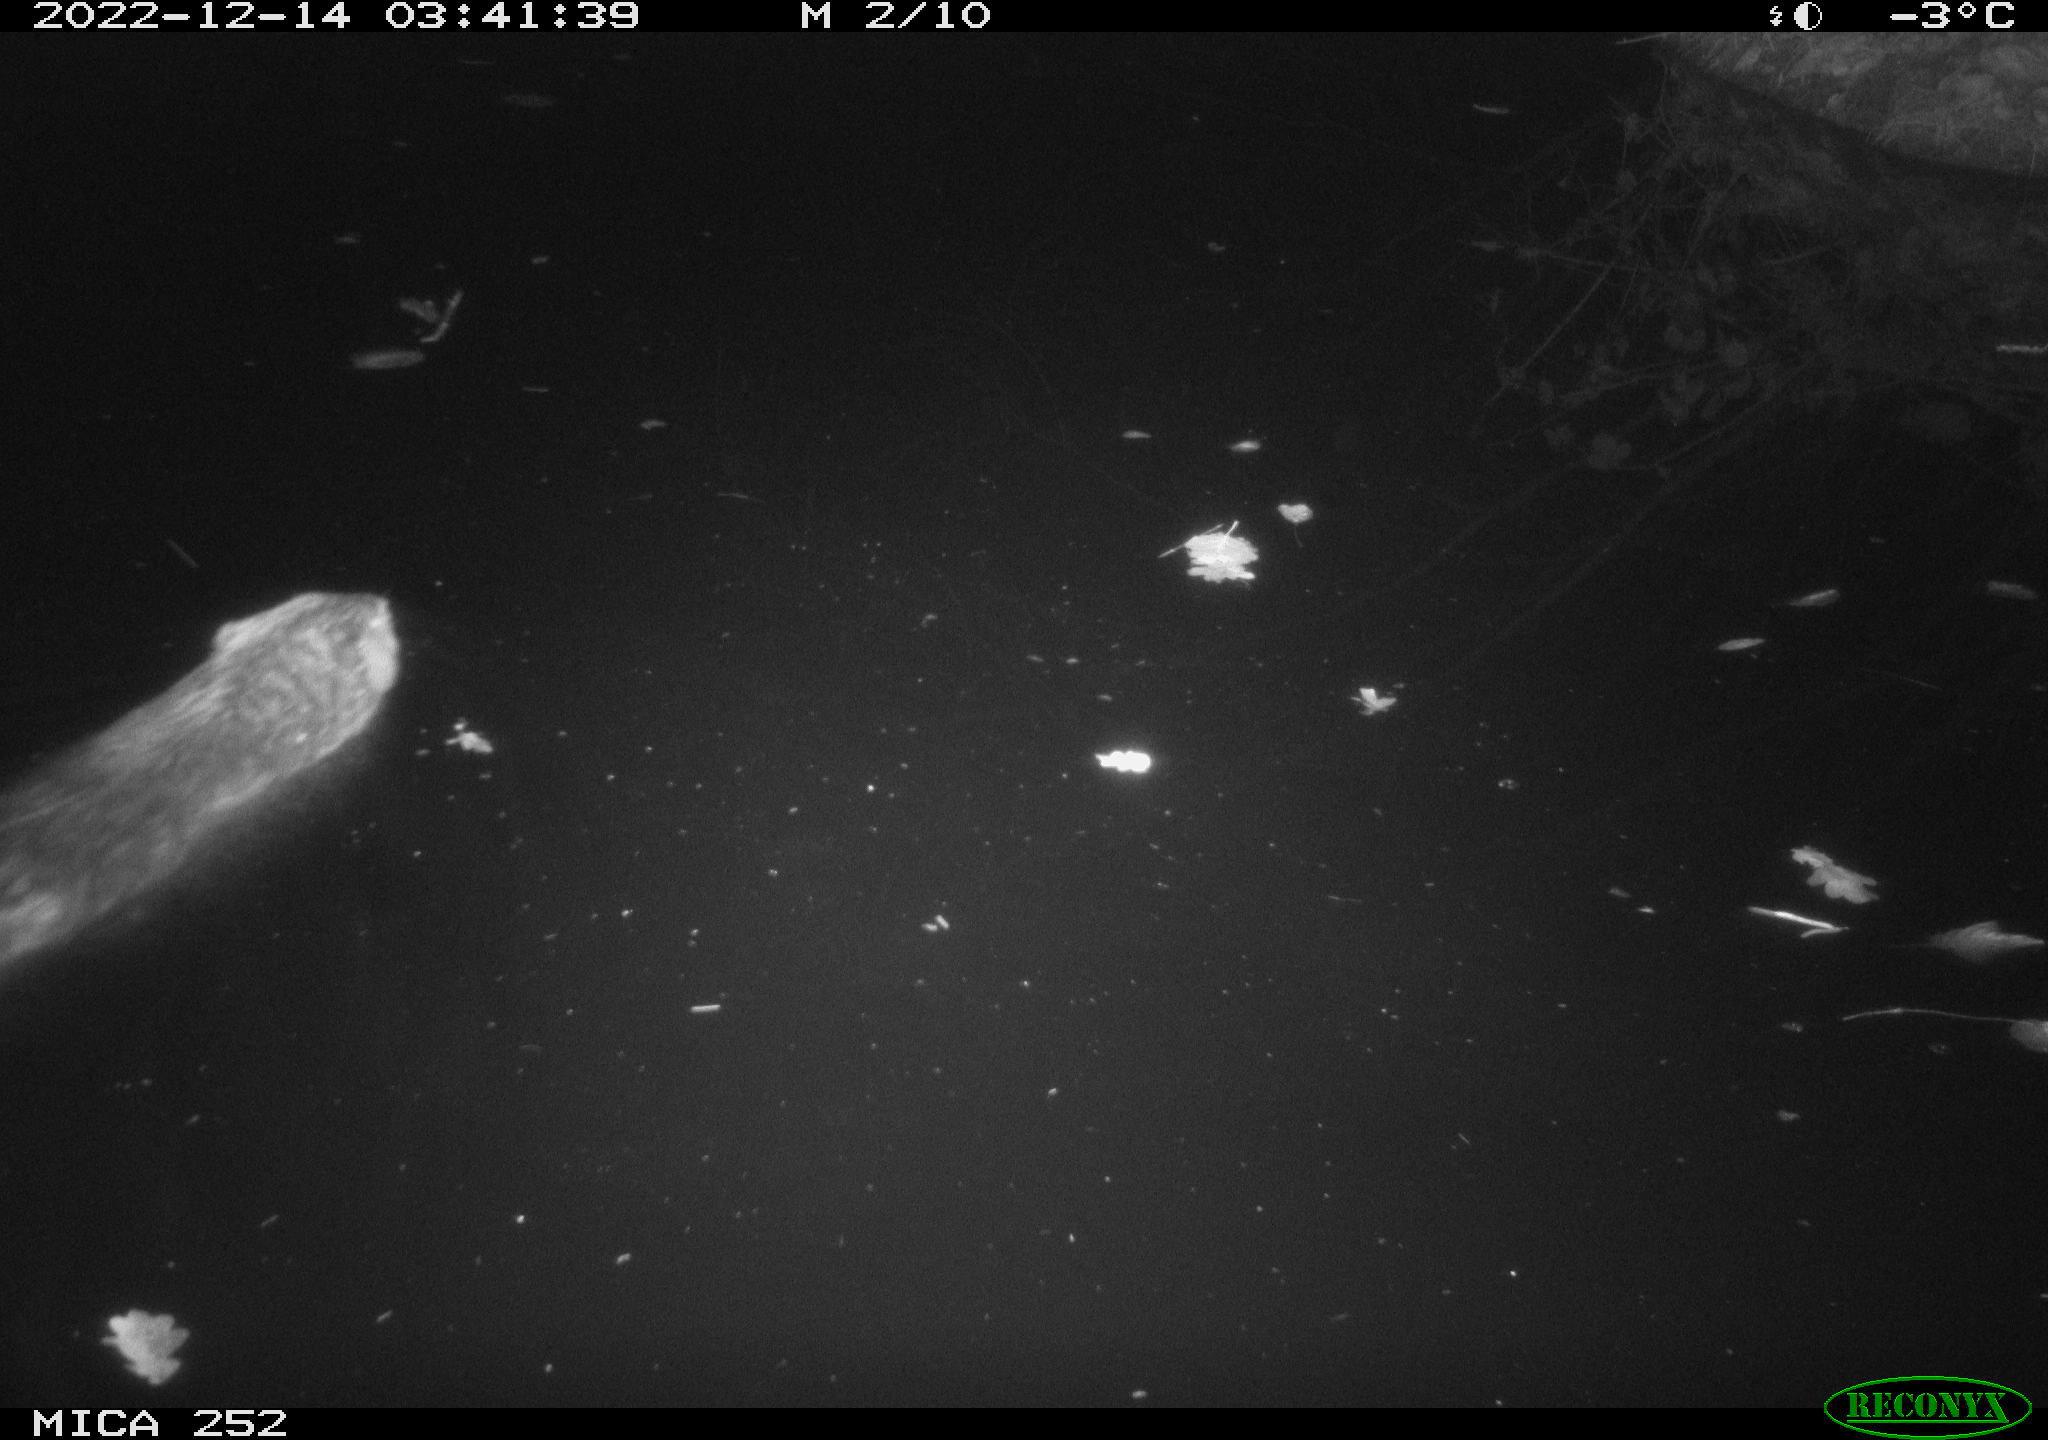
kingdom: Animalia
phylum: Chordata
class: Mammalia
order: Rodentia
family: Castoridae
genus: Castor
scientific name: Castor fiber
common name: Eurasian beaver
